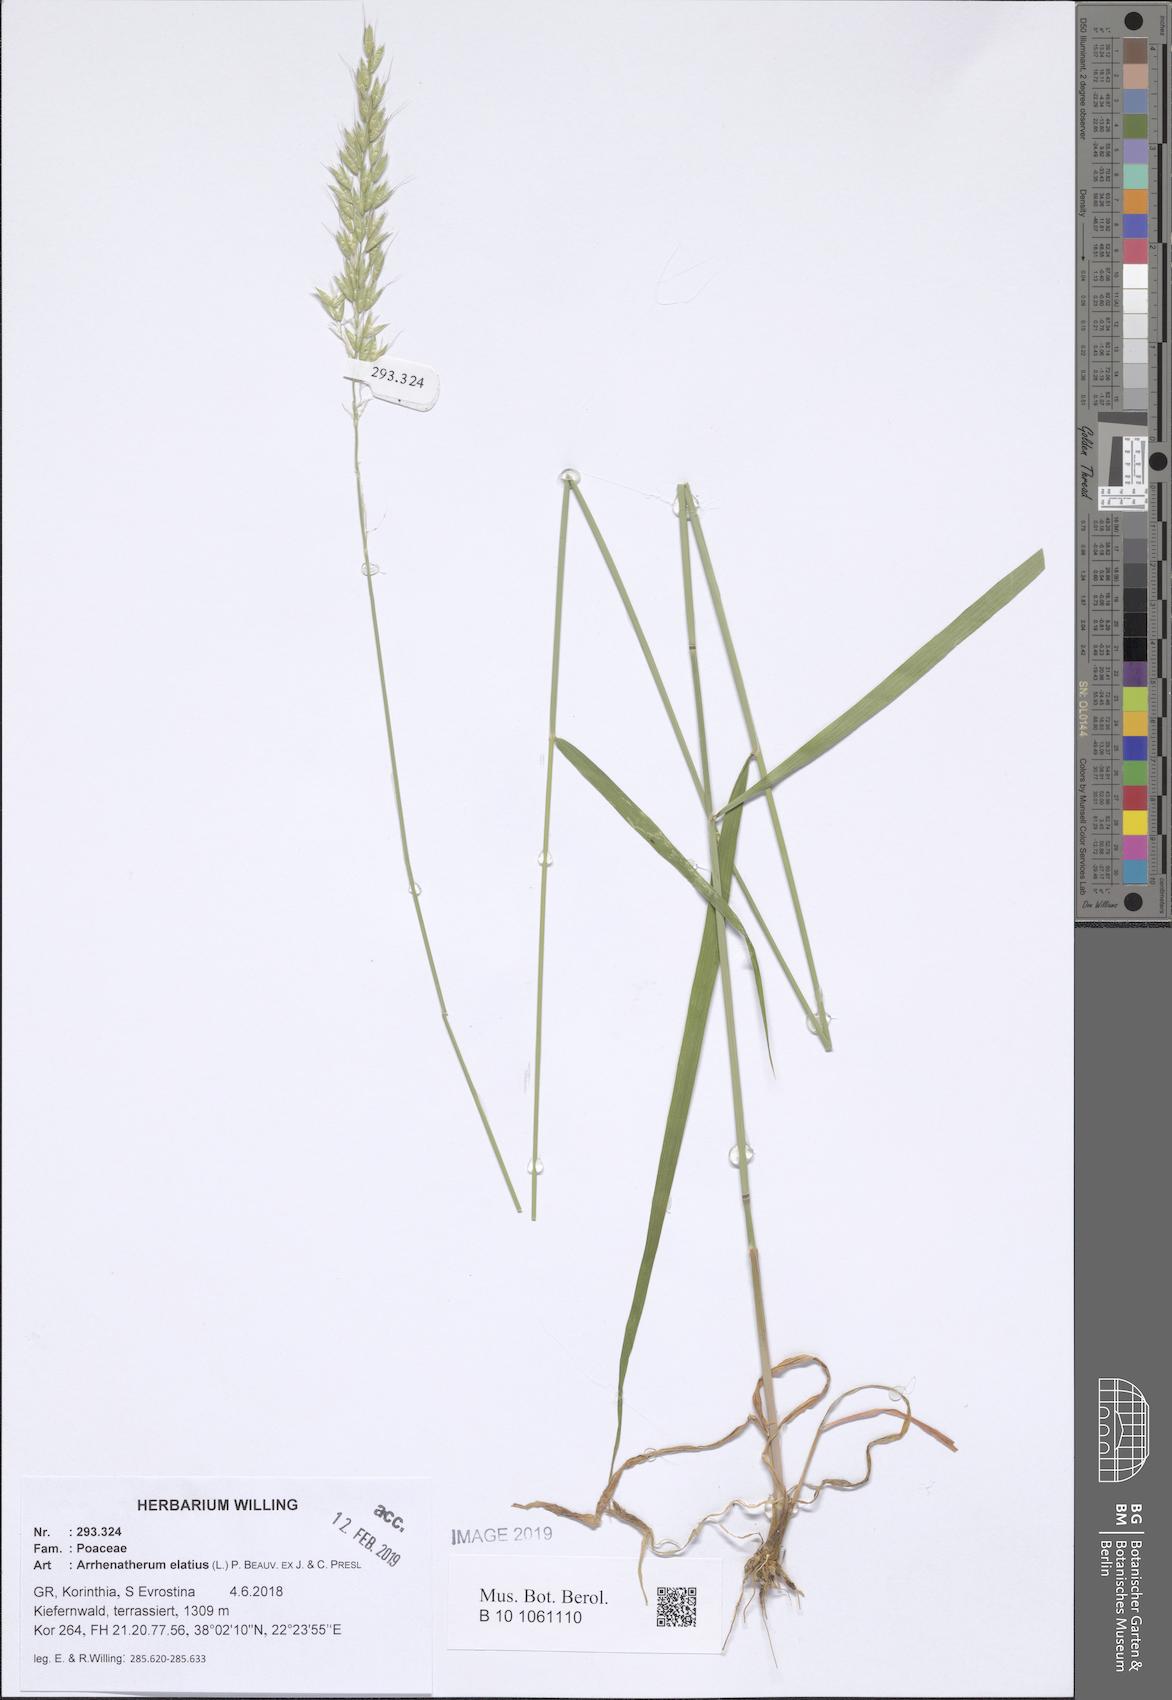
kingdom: Plantae
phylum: Tracheophyta
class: Liliopsida
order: Poales
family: Poaceae
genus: Arrhenatherum
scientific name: Arrhenatherum elatius
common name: Tall oatgrass
